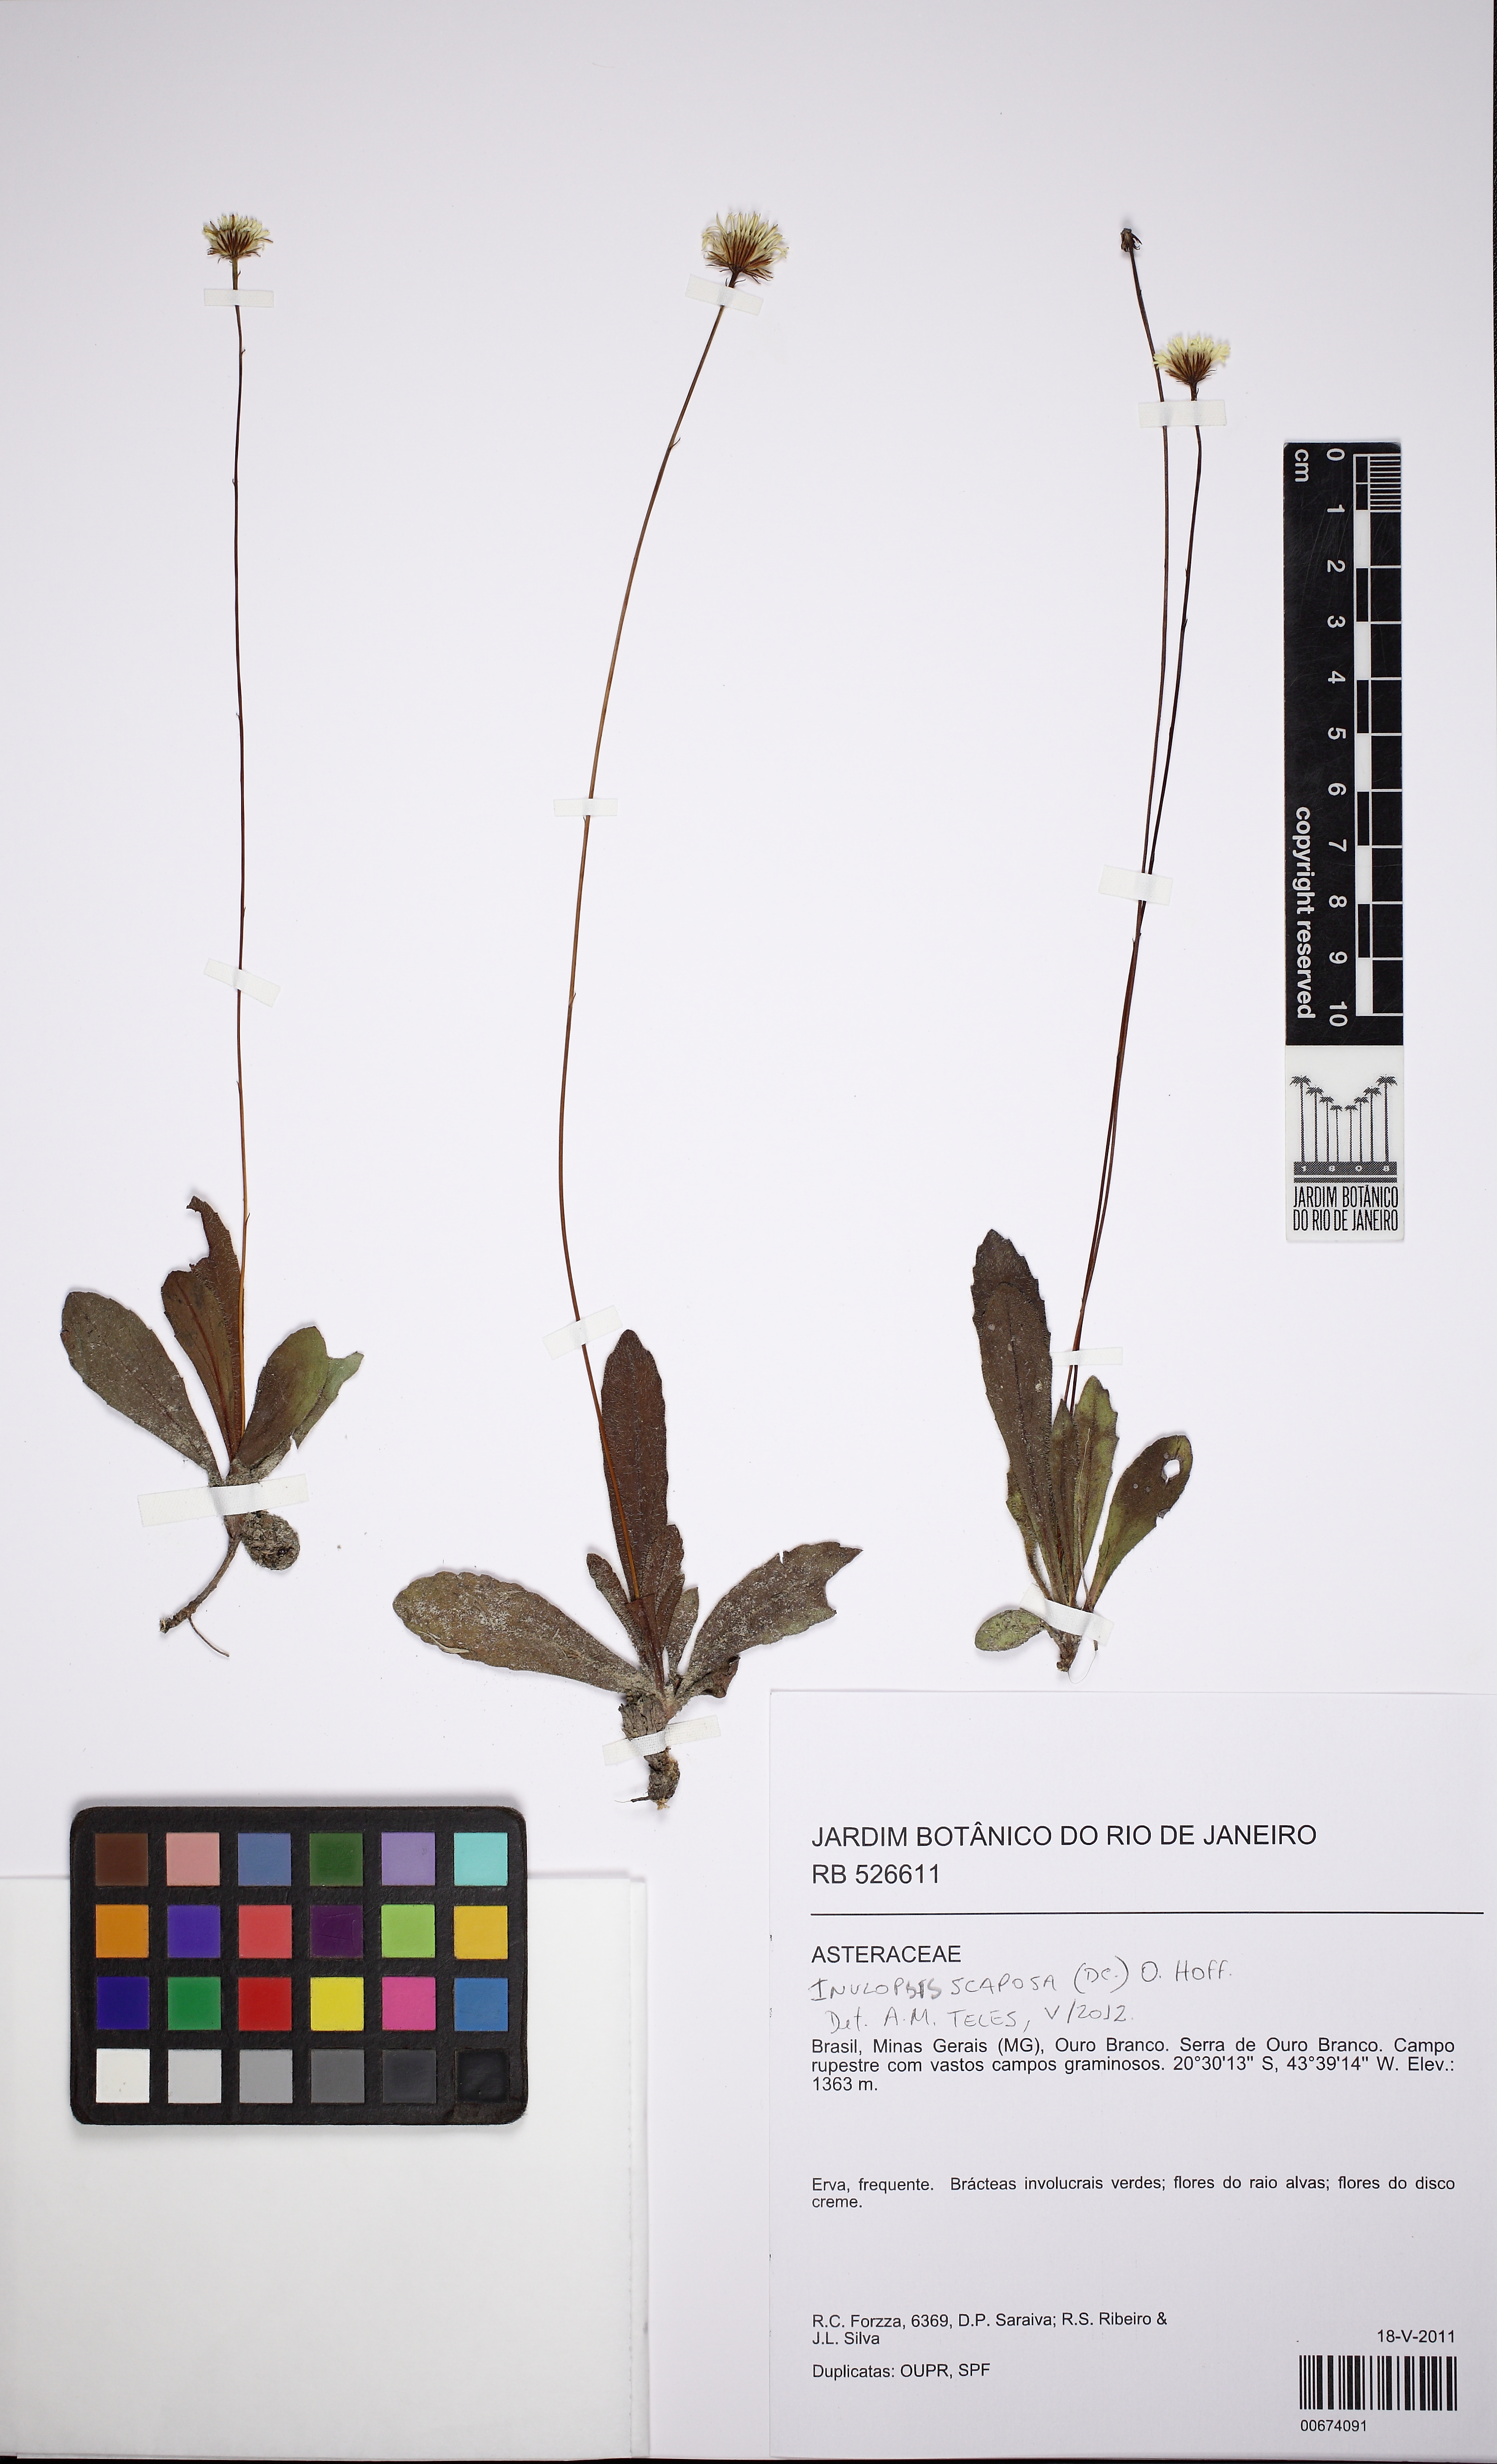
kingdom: Plantae
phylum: Tracheophyta
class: Magnoliopsida
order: Asterales
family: Asteraceae
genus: Inulopsis
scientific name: Inulopsis scaposa
